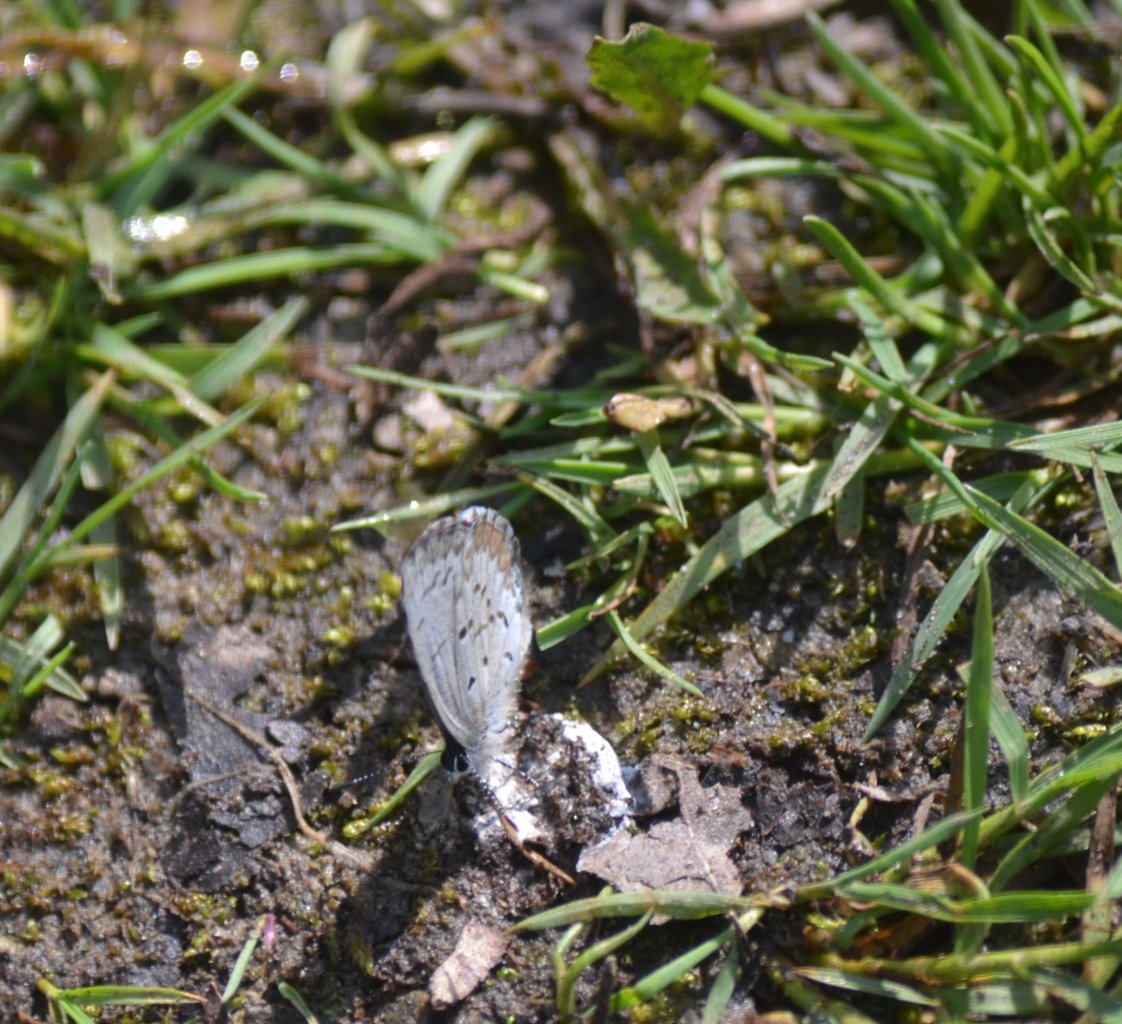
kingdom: Animalia
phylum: Arthropoda
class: Insecta
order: Lepidoptera
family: Lycaenidae
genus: Celastrina
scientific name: Celastrina lucia
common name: Northern Spring Azure
